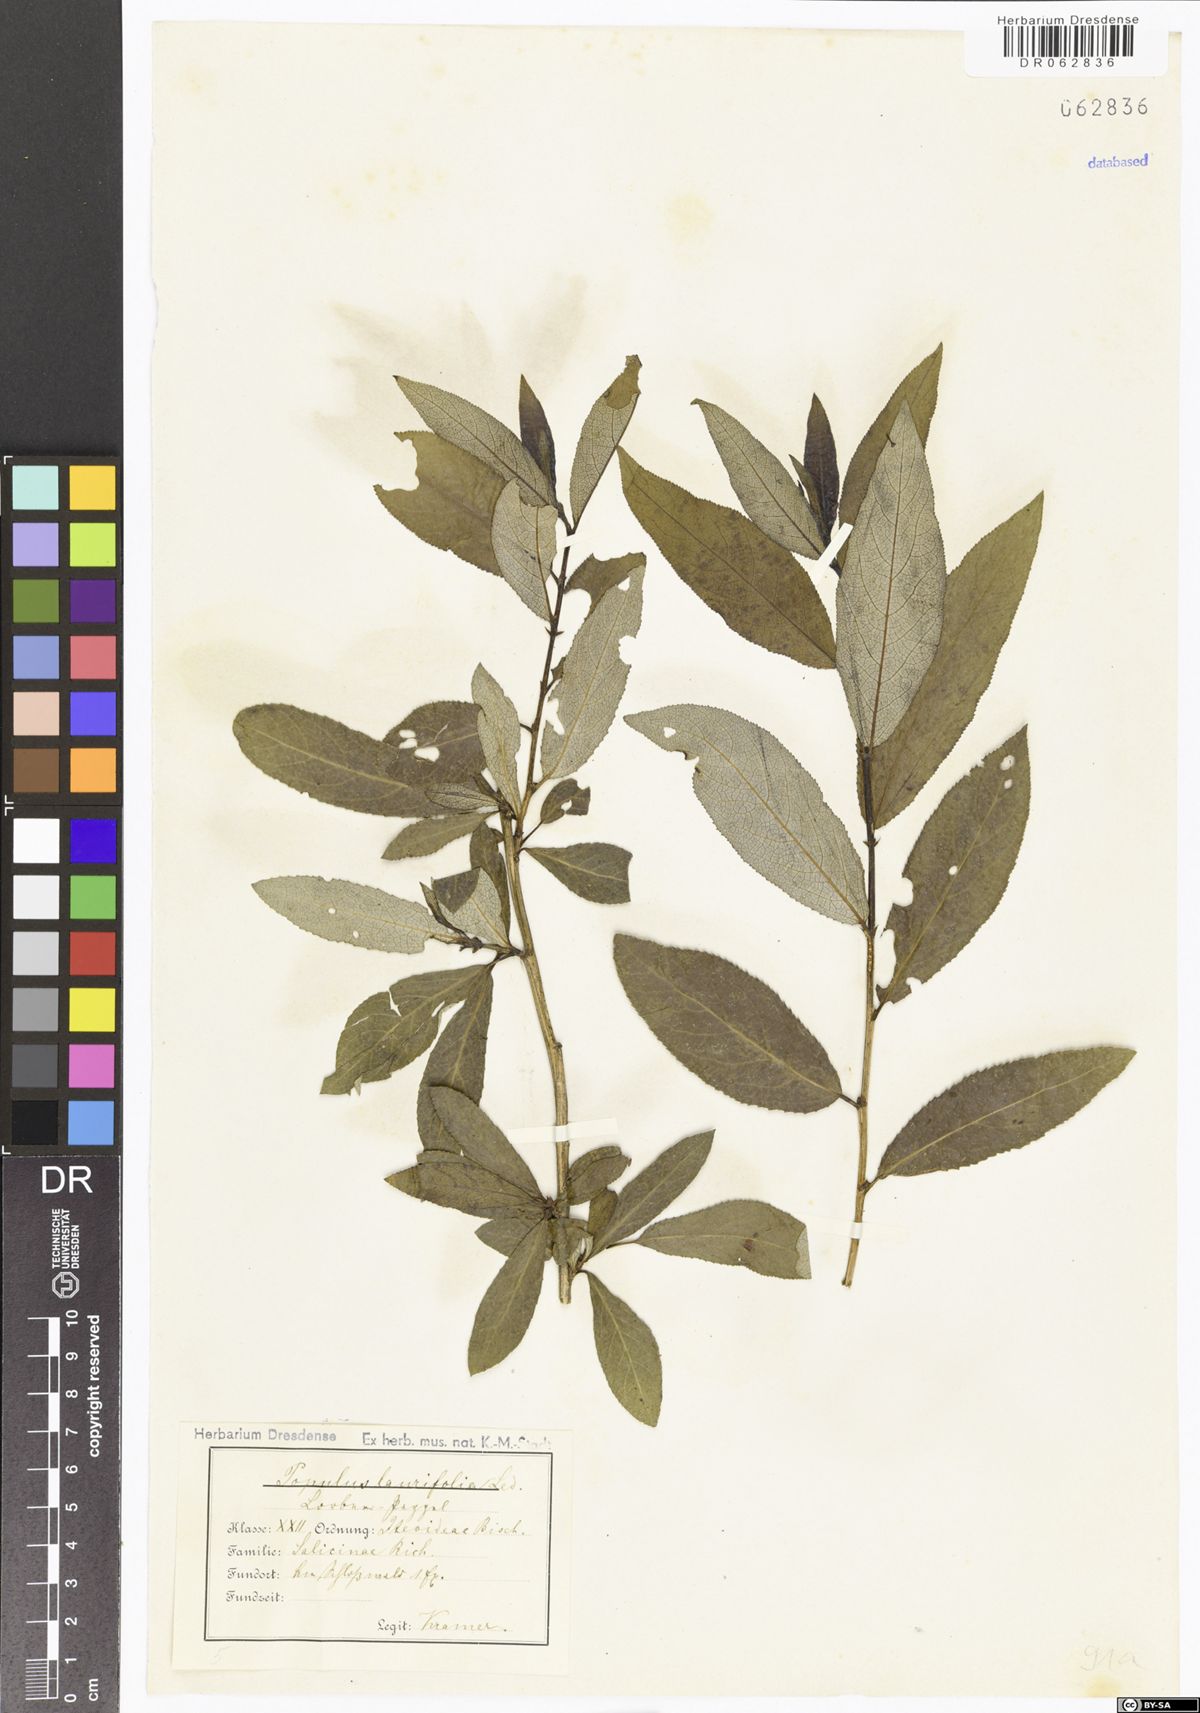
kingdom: Plantae
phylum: Tracheophyta
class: Magnoliopsida
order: Malpighiales
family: Salicaceae
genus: Populus
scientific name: Populus laurifolia
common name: Laurel-leaf poplar
